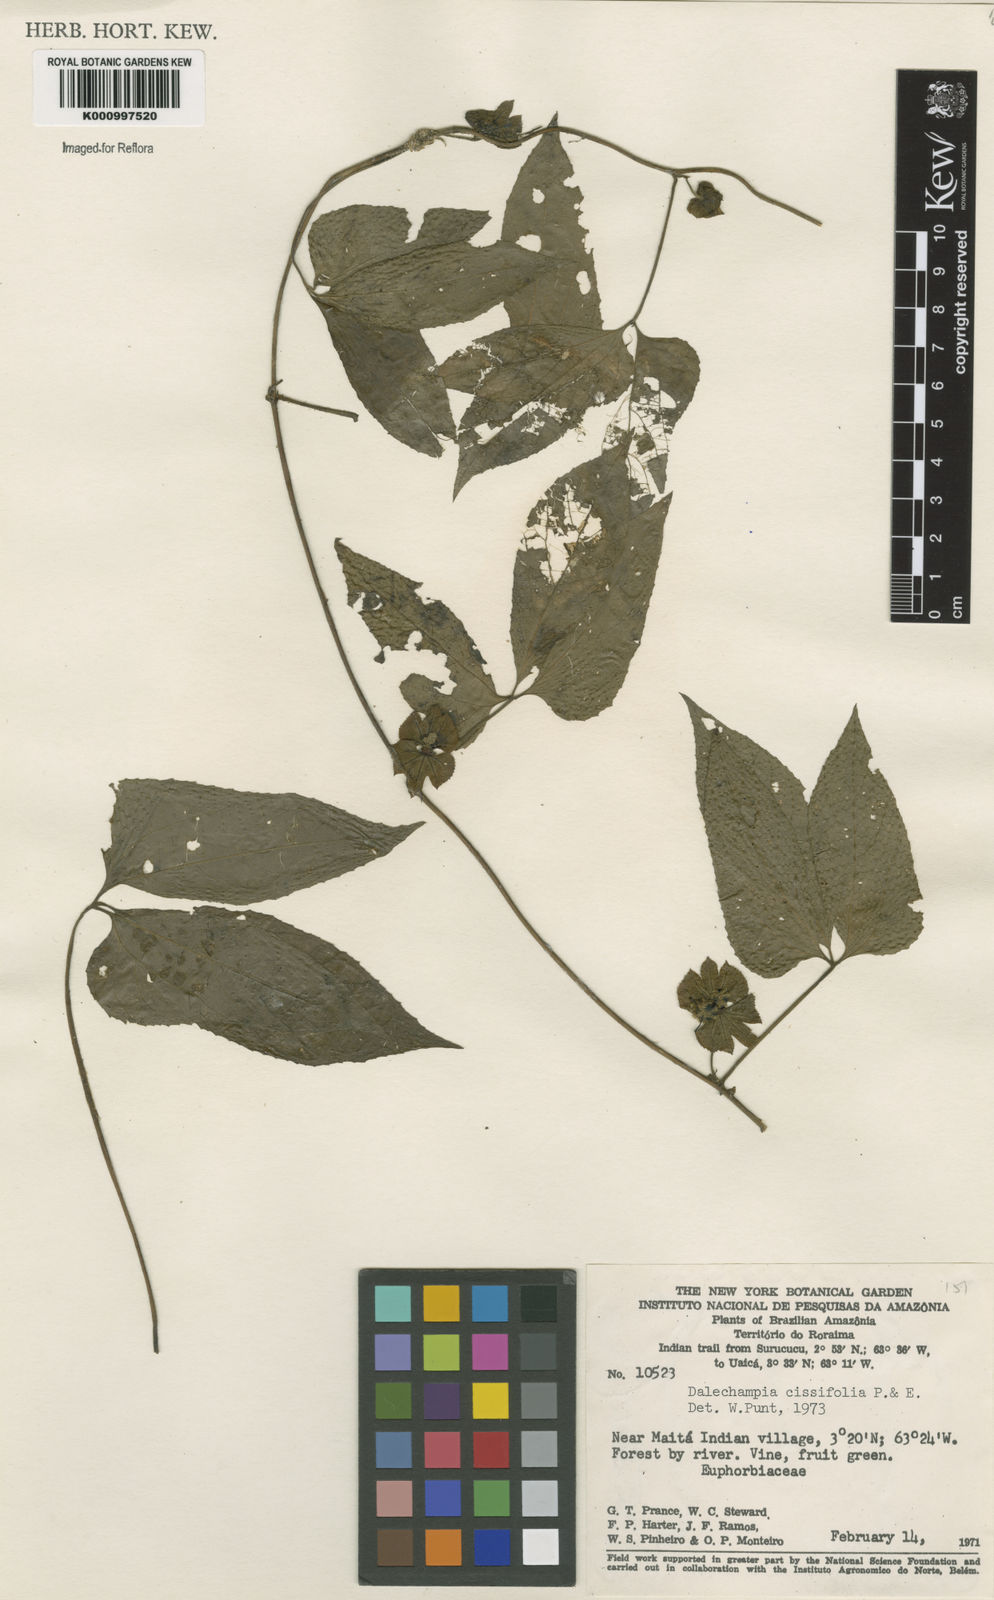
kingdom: Plantae
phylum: Tracheophyta
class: Magnoliopsida
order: Malpighiales
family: Euphorbiaceae
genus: Dalechampia
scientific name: Dalechampia cissifolia
